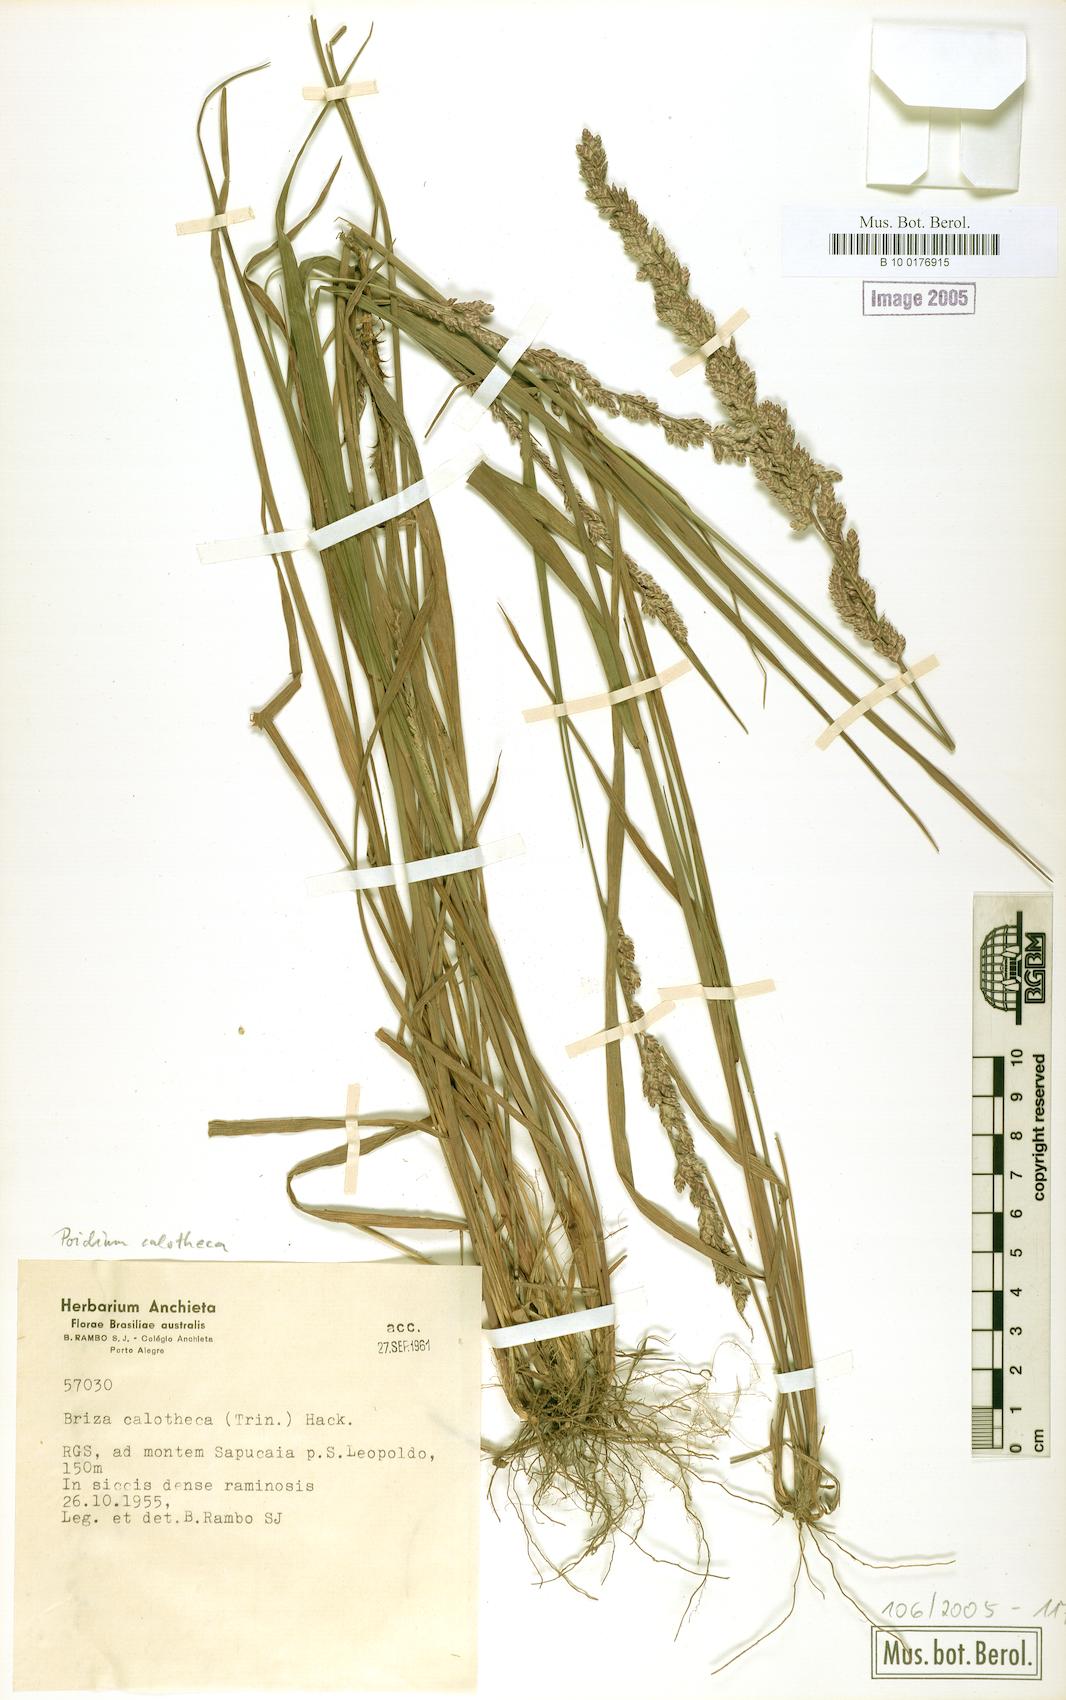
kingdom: Plantae
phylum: Tracheophyta
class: Liliopsida
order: Poales
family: Poaceae
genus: Poidium
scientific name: Poidium calotheca
